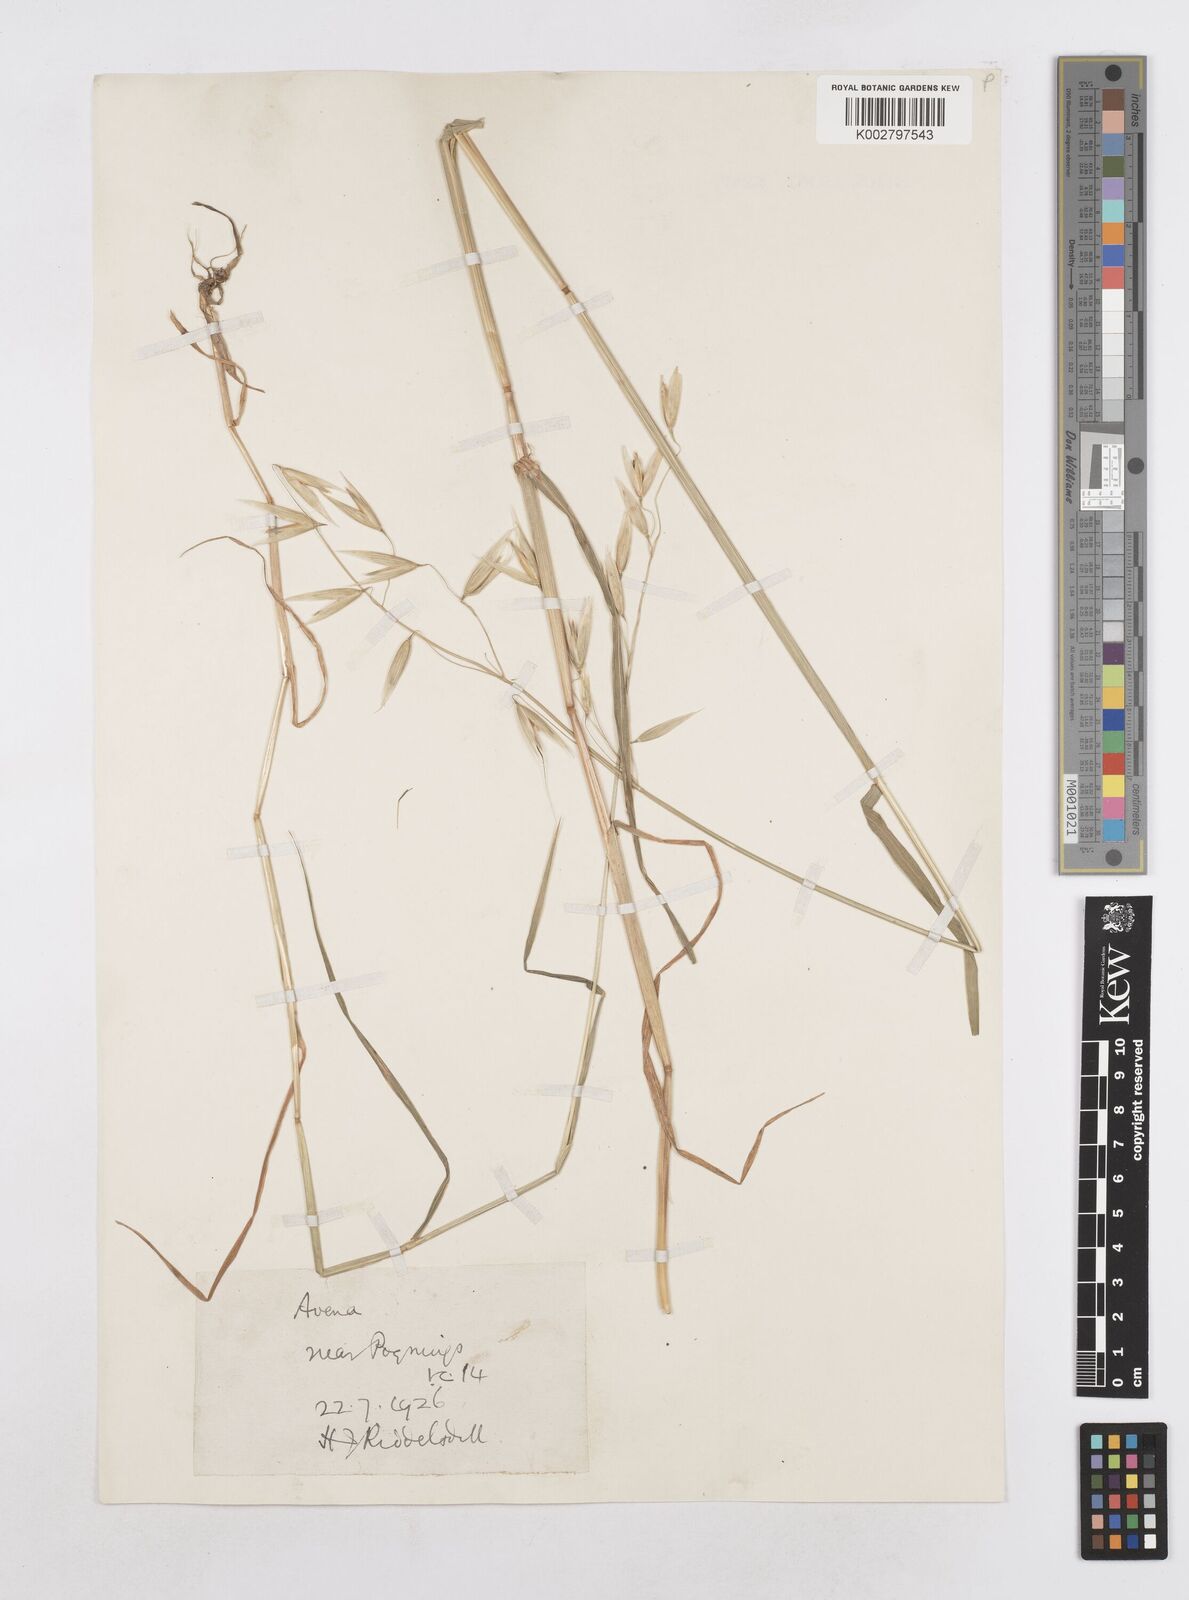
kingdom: Plantae
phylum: Tracheophyta
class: Liliopsida
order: Poales
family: Poaceae
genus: Avena
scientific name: Avena sativa
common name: Oat
